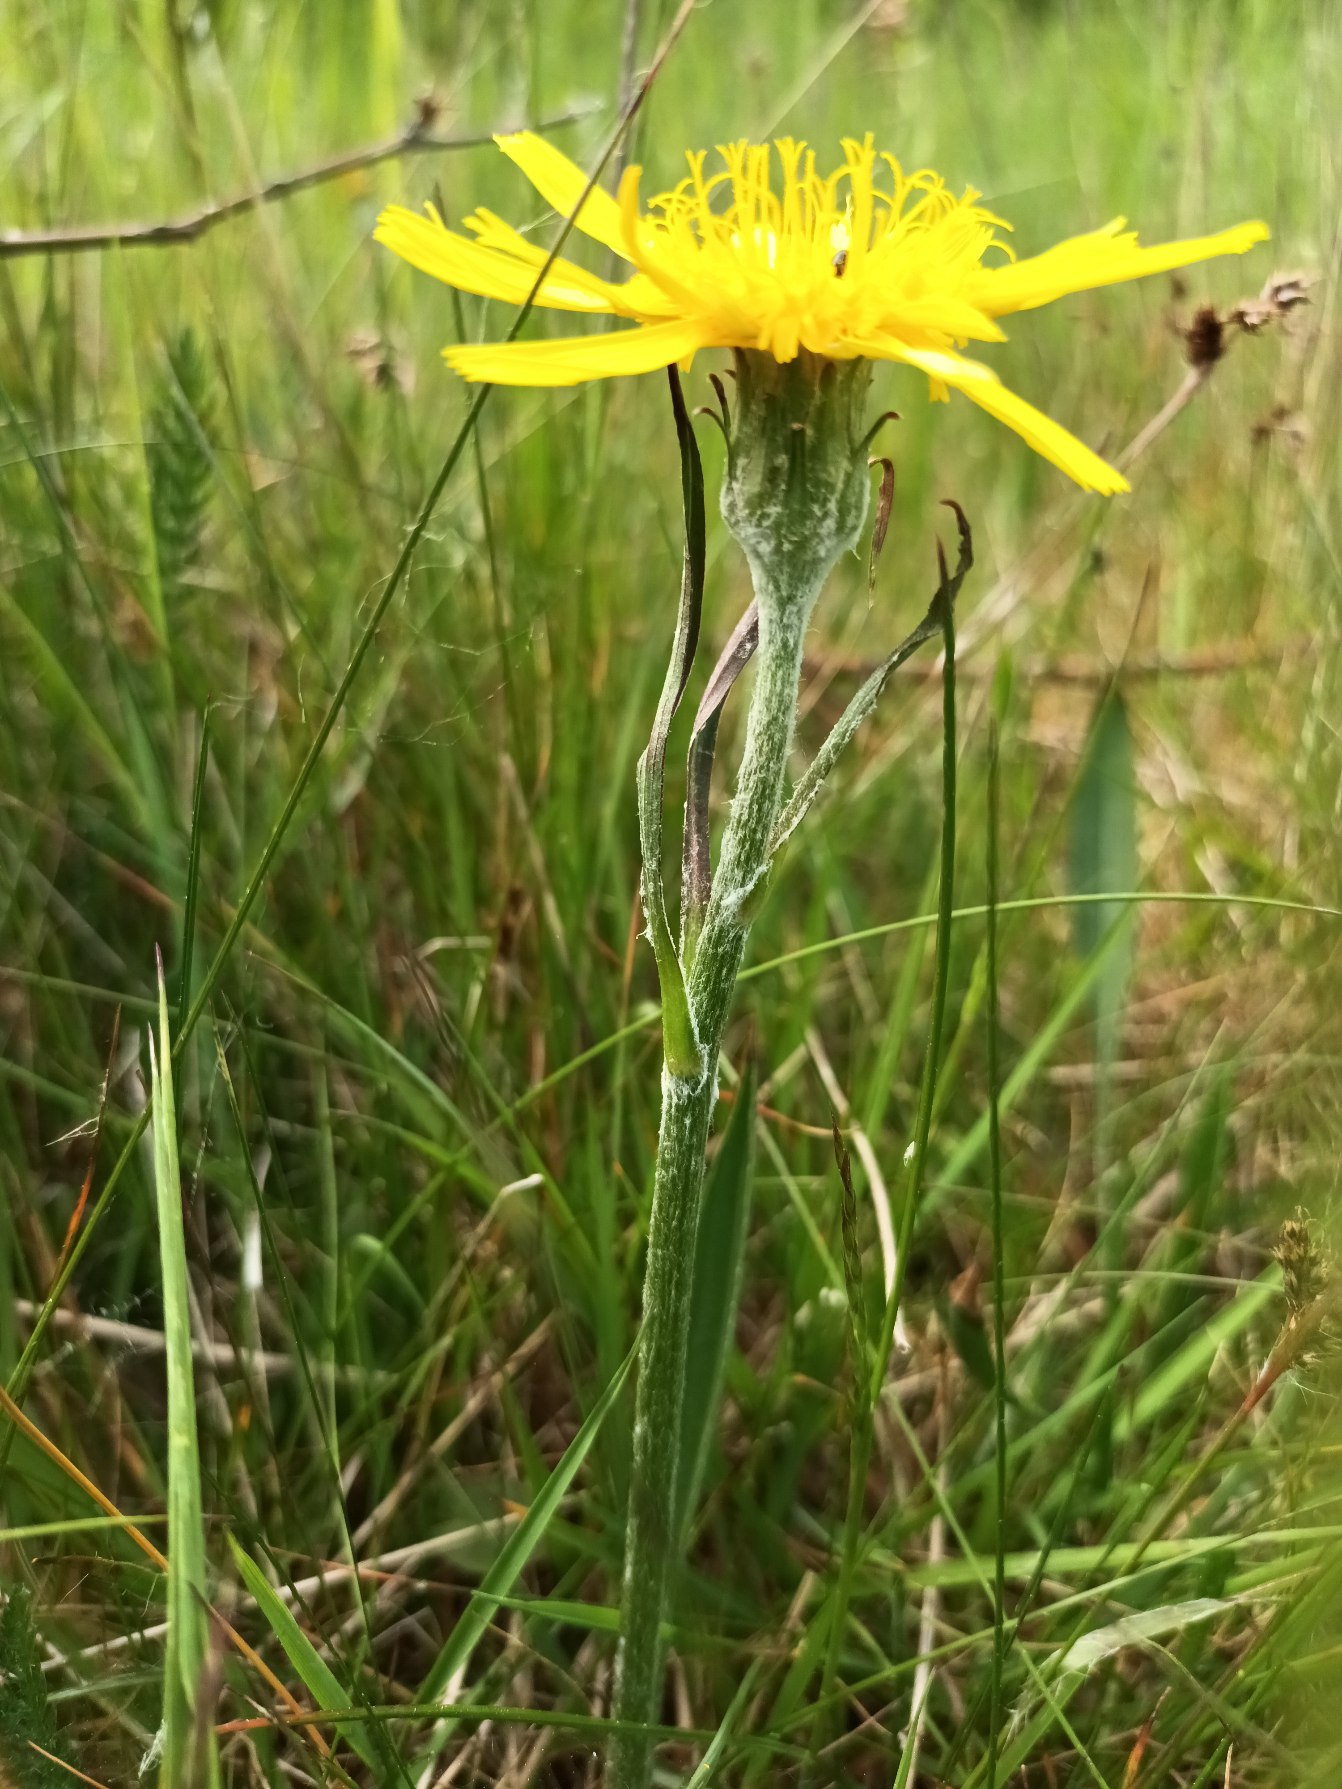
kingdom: Plantae
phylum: Tracheophyta
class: Magnoliopsida
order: Asterales
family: Asteraceae
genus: Scorzonera
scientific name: Scorzonera humilis
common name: Lav skorsoner
